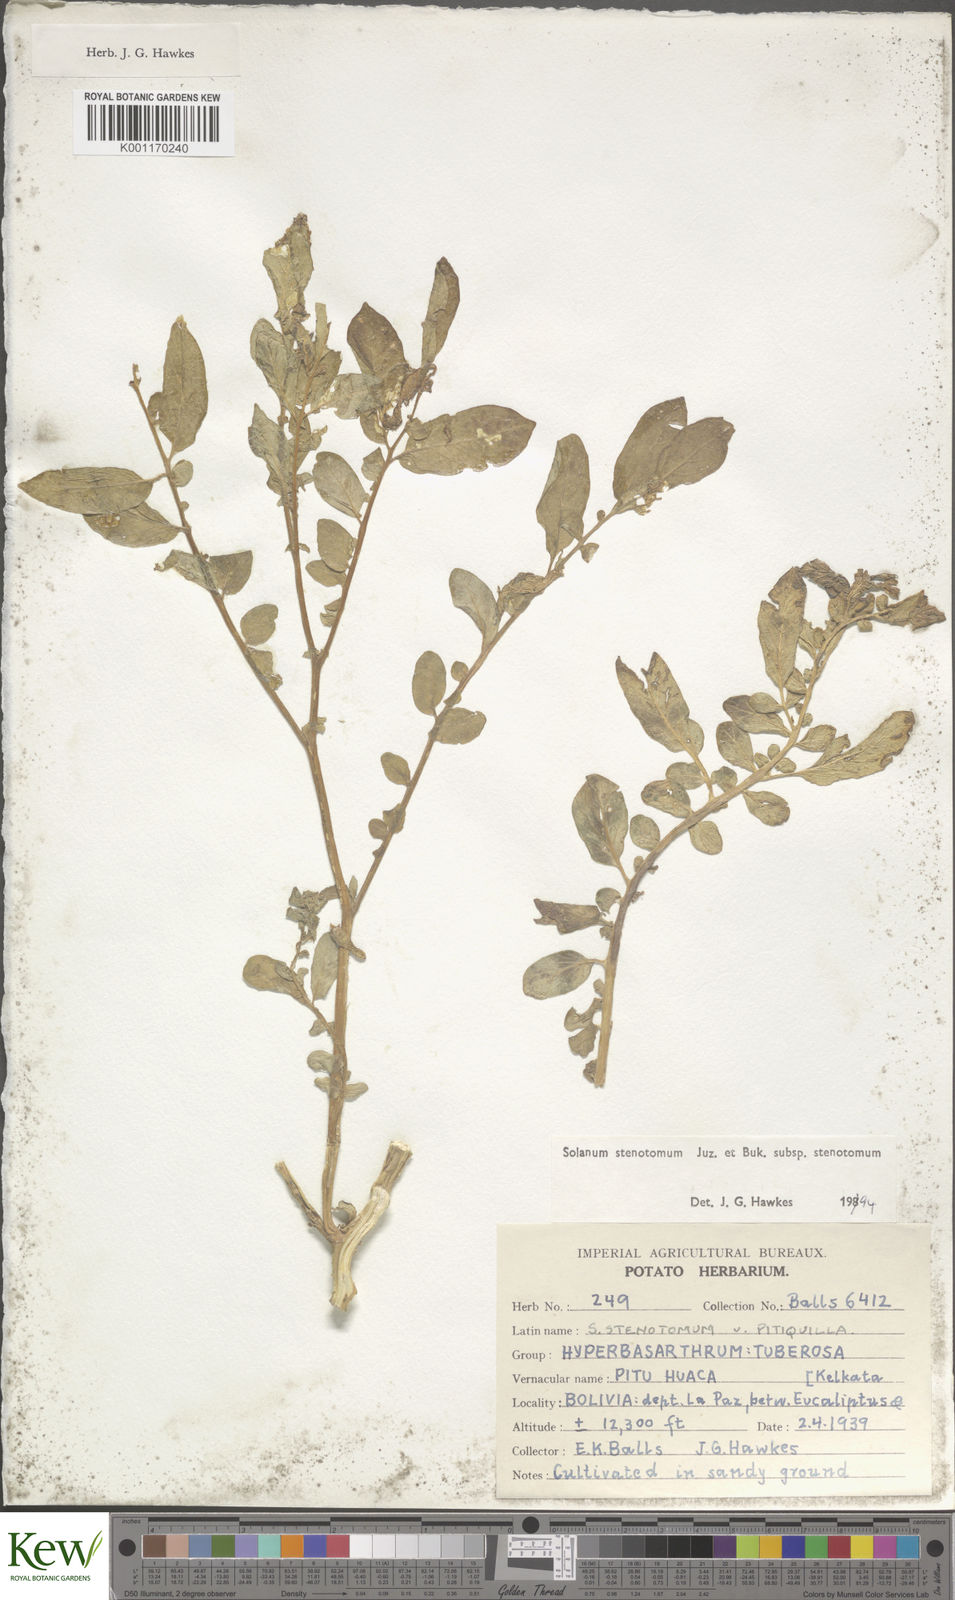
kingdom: Plantae
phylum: Tracheophyta
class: Magnoliopsida
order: Solanales
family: Solanaceae
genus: Solanum
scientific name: Solanum tuberosum
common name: Potato
